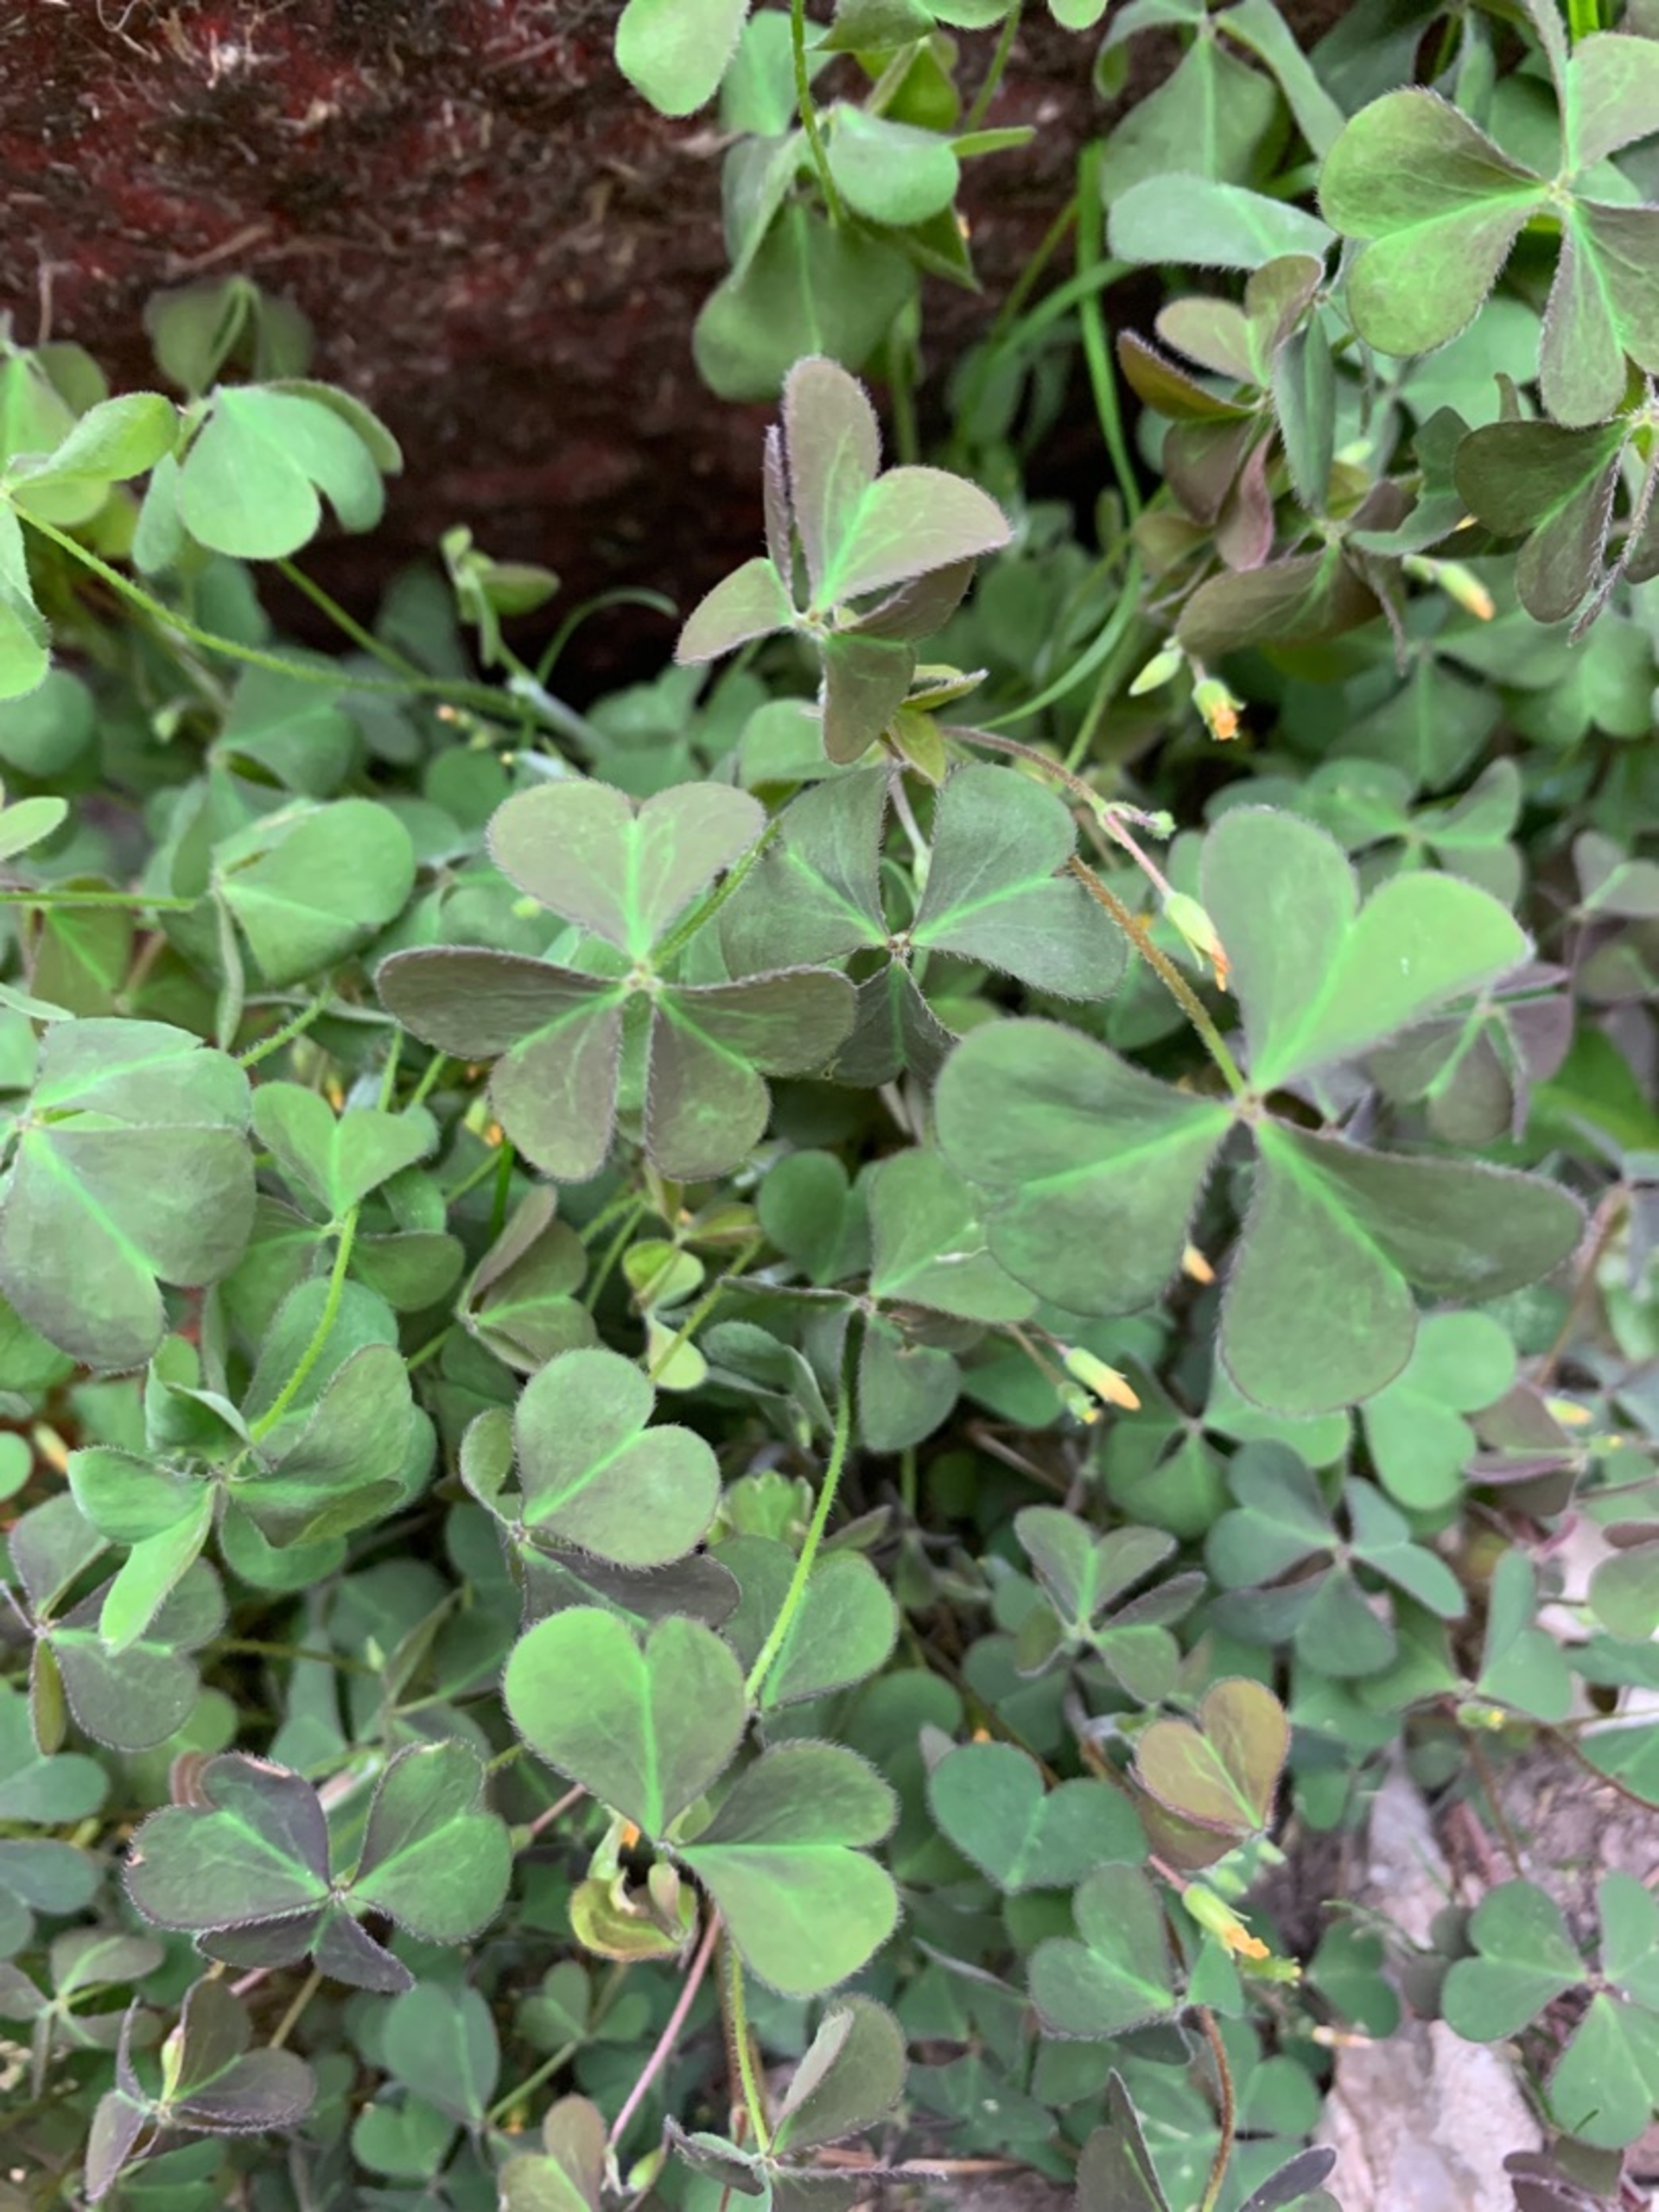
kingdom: Plantae
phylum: Tracheophyta
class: Magnoliopsida
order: Oxalidales
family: Oxalidaceae
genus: Oxalis
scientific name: Oxalis corniculata
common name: Nedliggende surkløver
